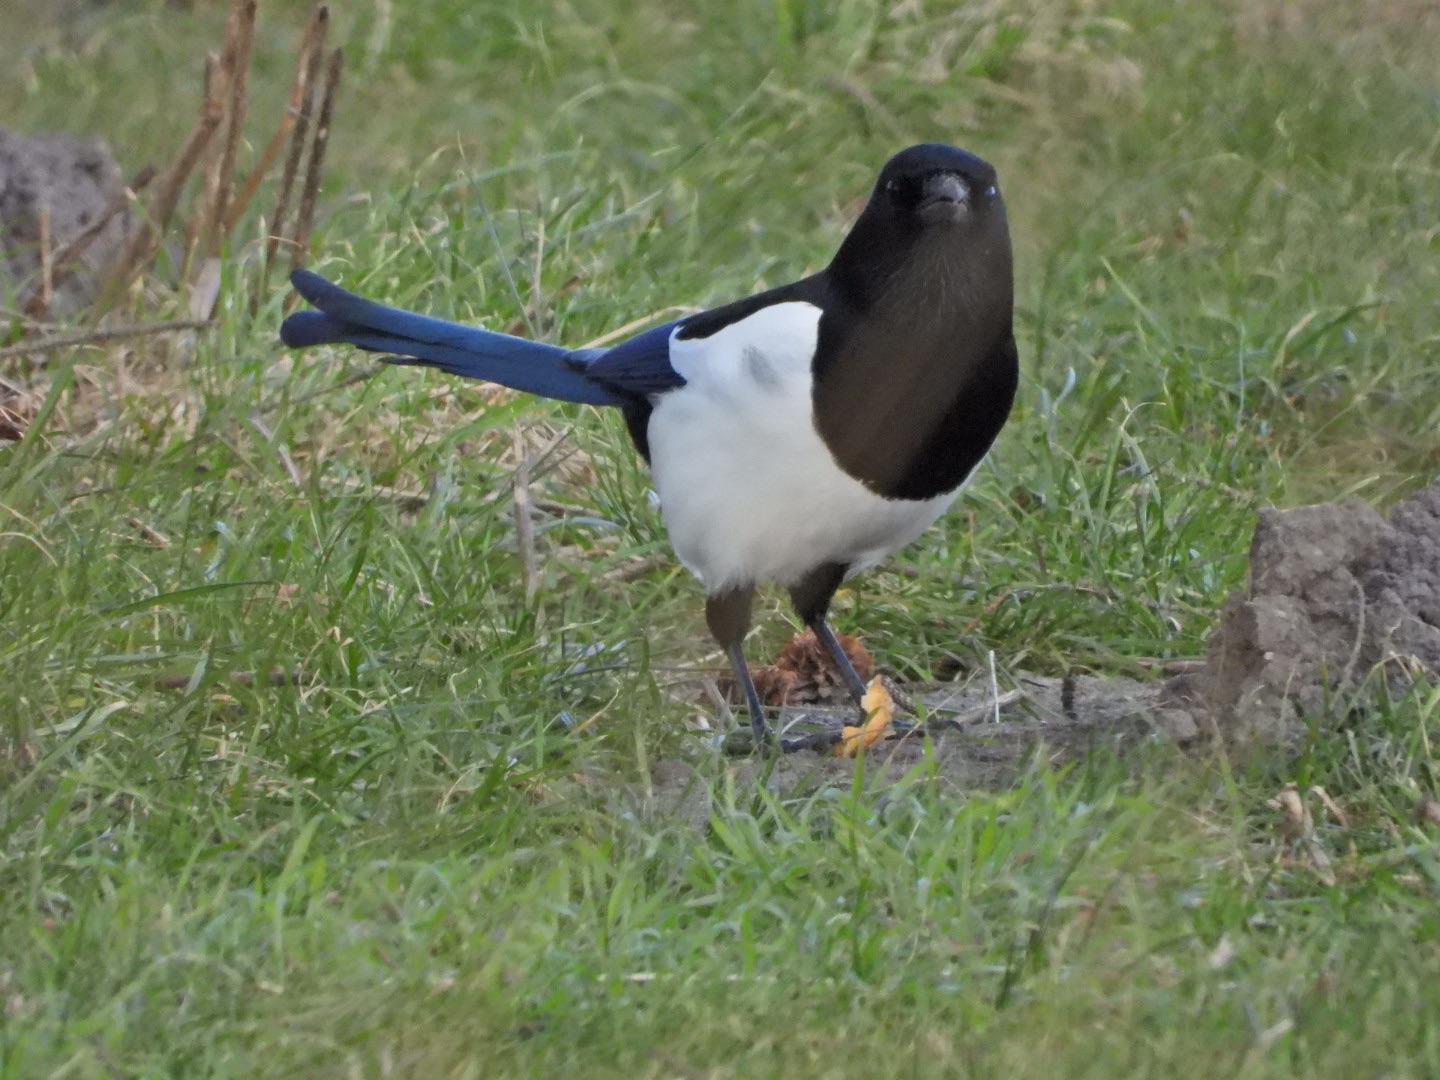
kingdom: Animalia
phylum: Chordata
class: Aves
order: Passeriformes
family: Corvidae
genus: Pica
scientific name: Pica pica
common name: Husskade
